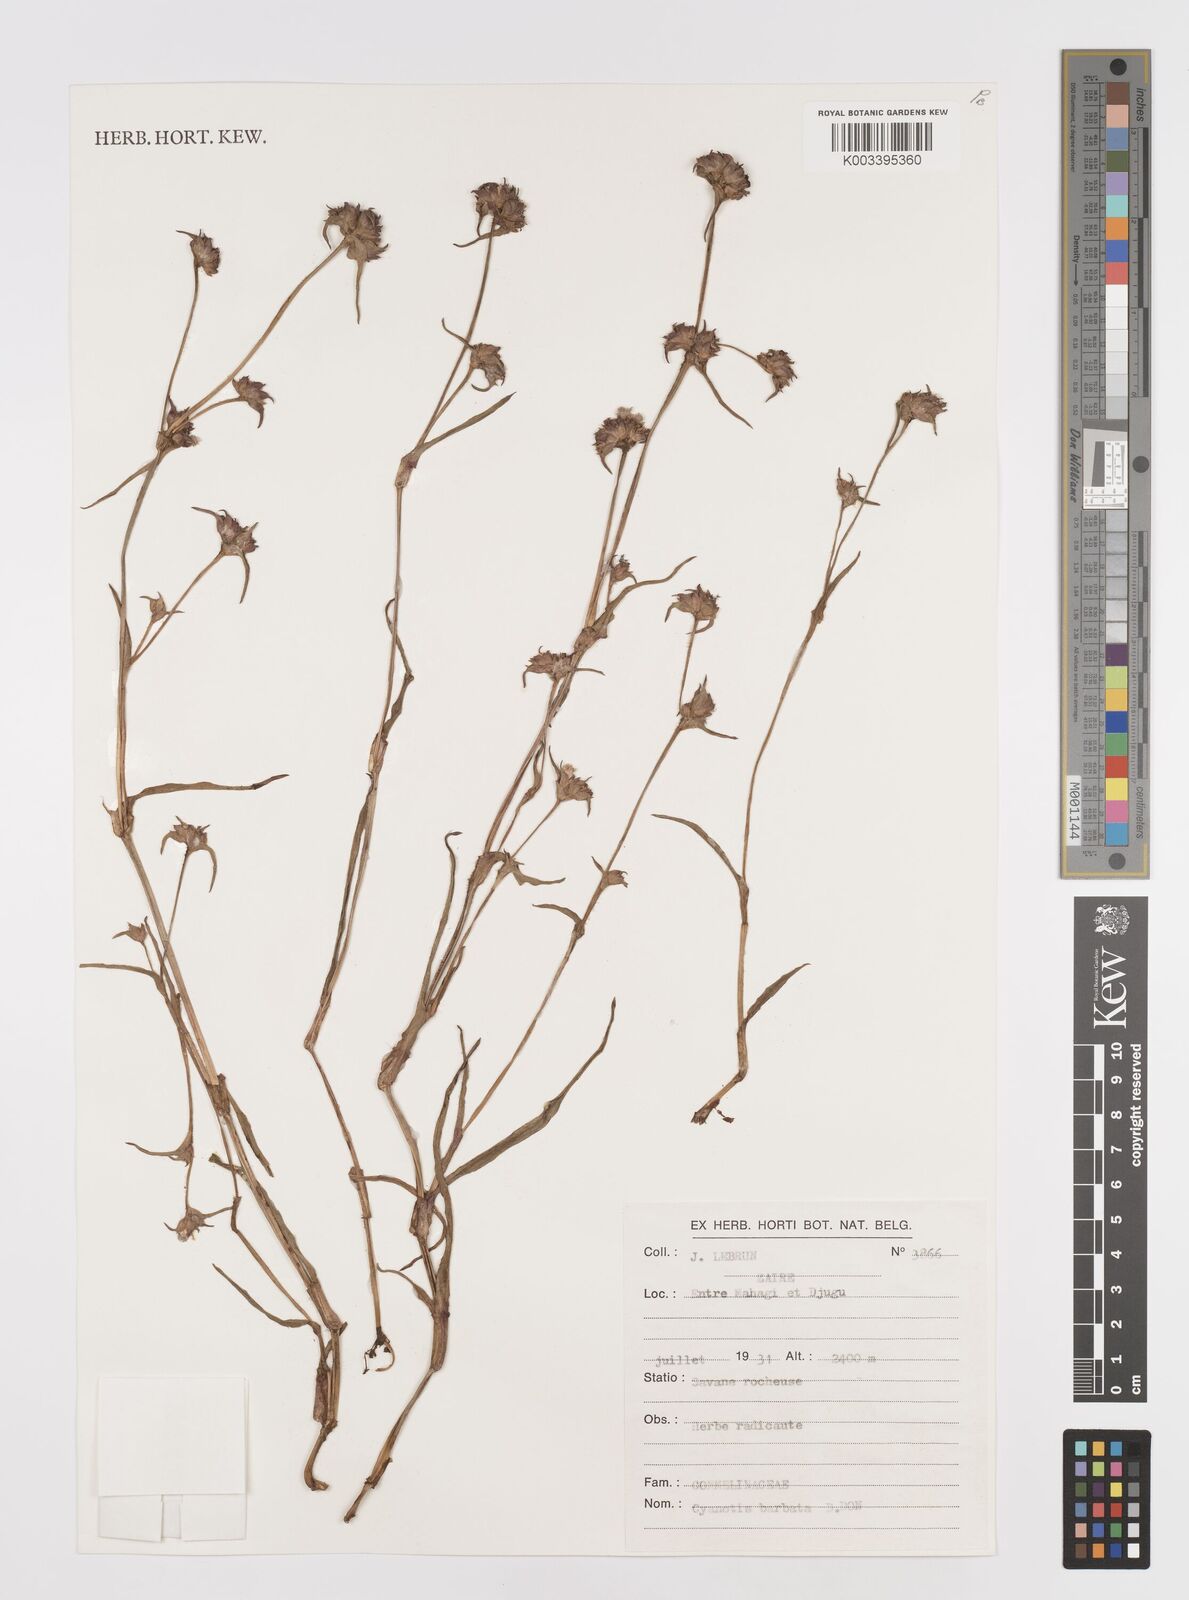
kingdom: Plantae
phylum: Tracheophyta
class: Liliopsida
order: Commelinales
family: Commelinaceae
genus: Cyanotis
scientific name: Cyanotis vaga
